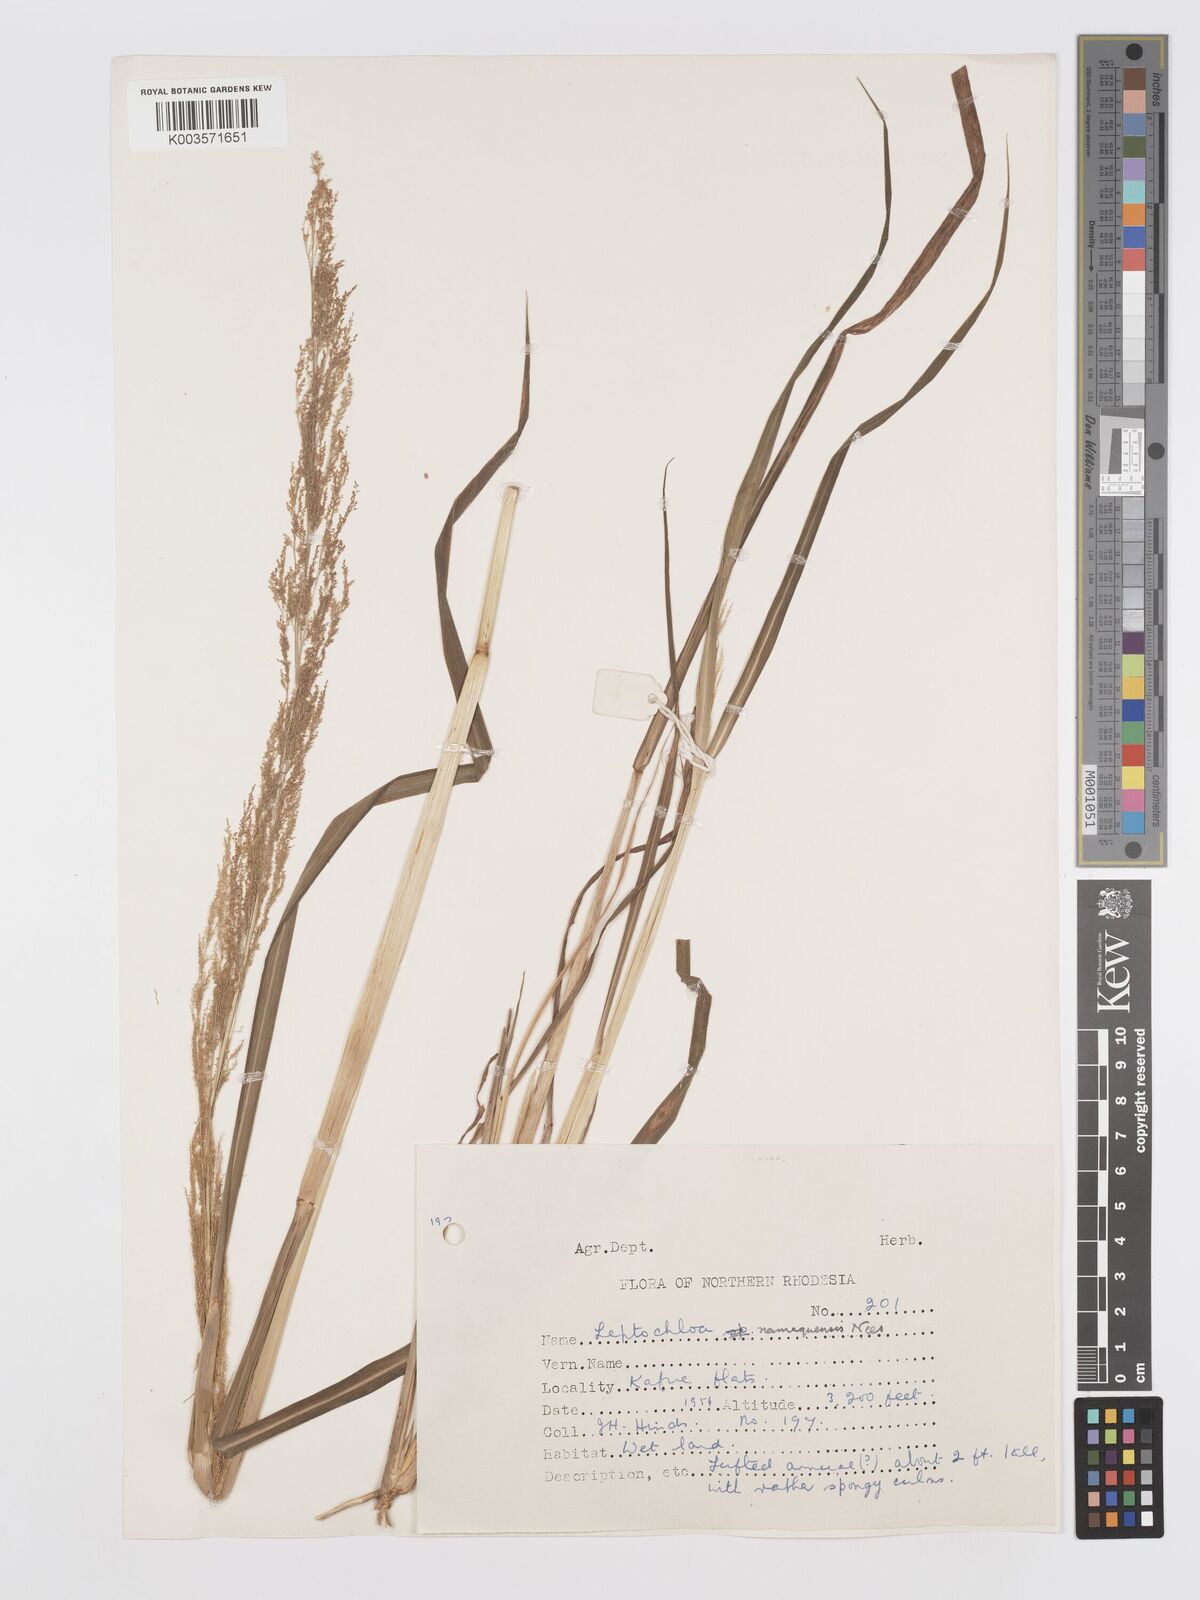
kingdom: Plantae
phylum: Tracheophyta
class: Liliopsida
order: Poales
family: Poaceae
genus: Eragrostis
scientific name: Eragrostis japonica
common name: Pond lovegrass
